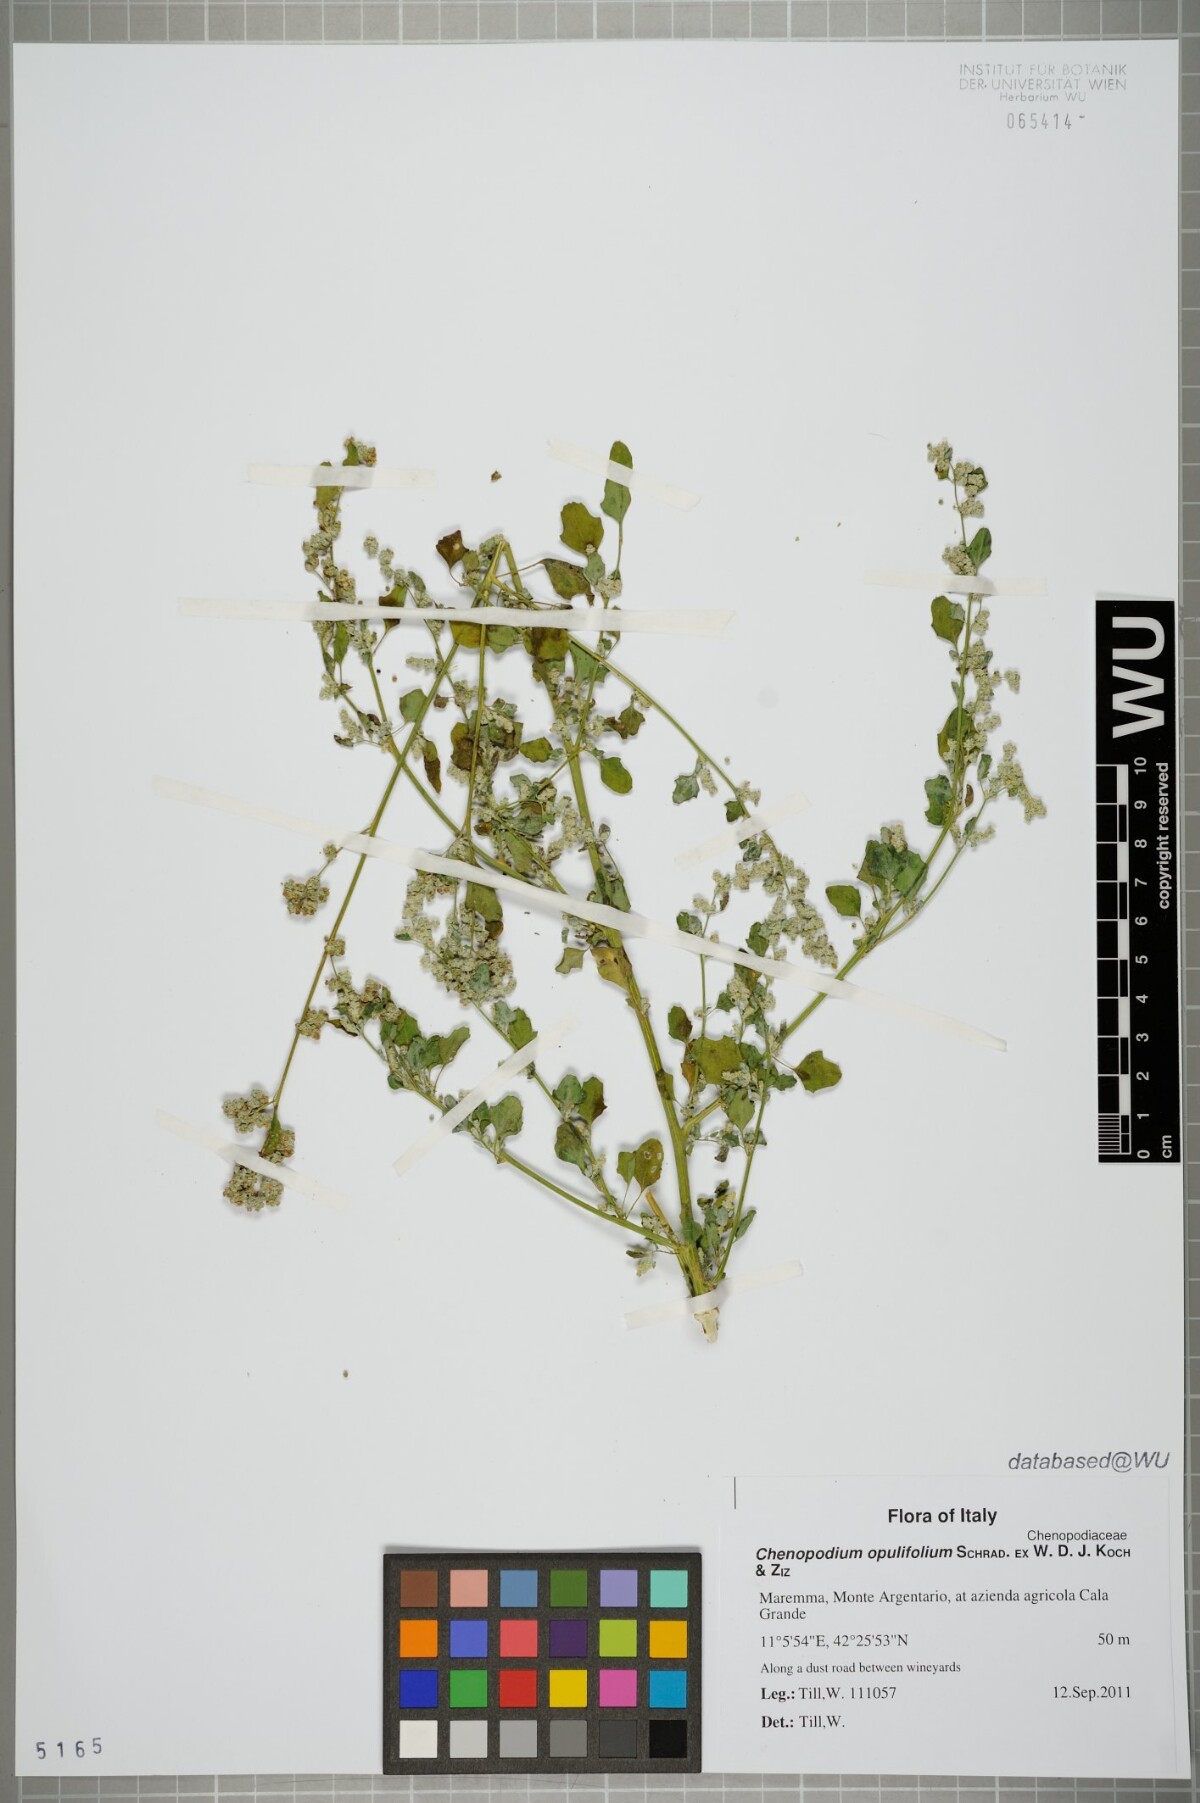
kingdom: Plantae
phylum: Tracheophyta
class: Magnoliopsida
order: Caryophyllales
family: Amaranthaceae
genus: Chenopodium
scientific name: Chenopodium opulifolium
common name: Grey goosefoot
